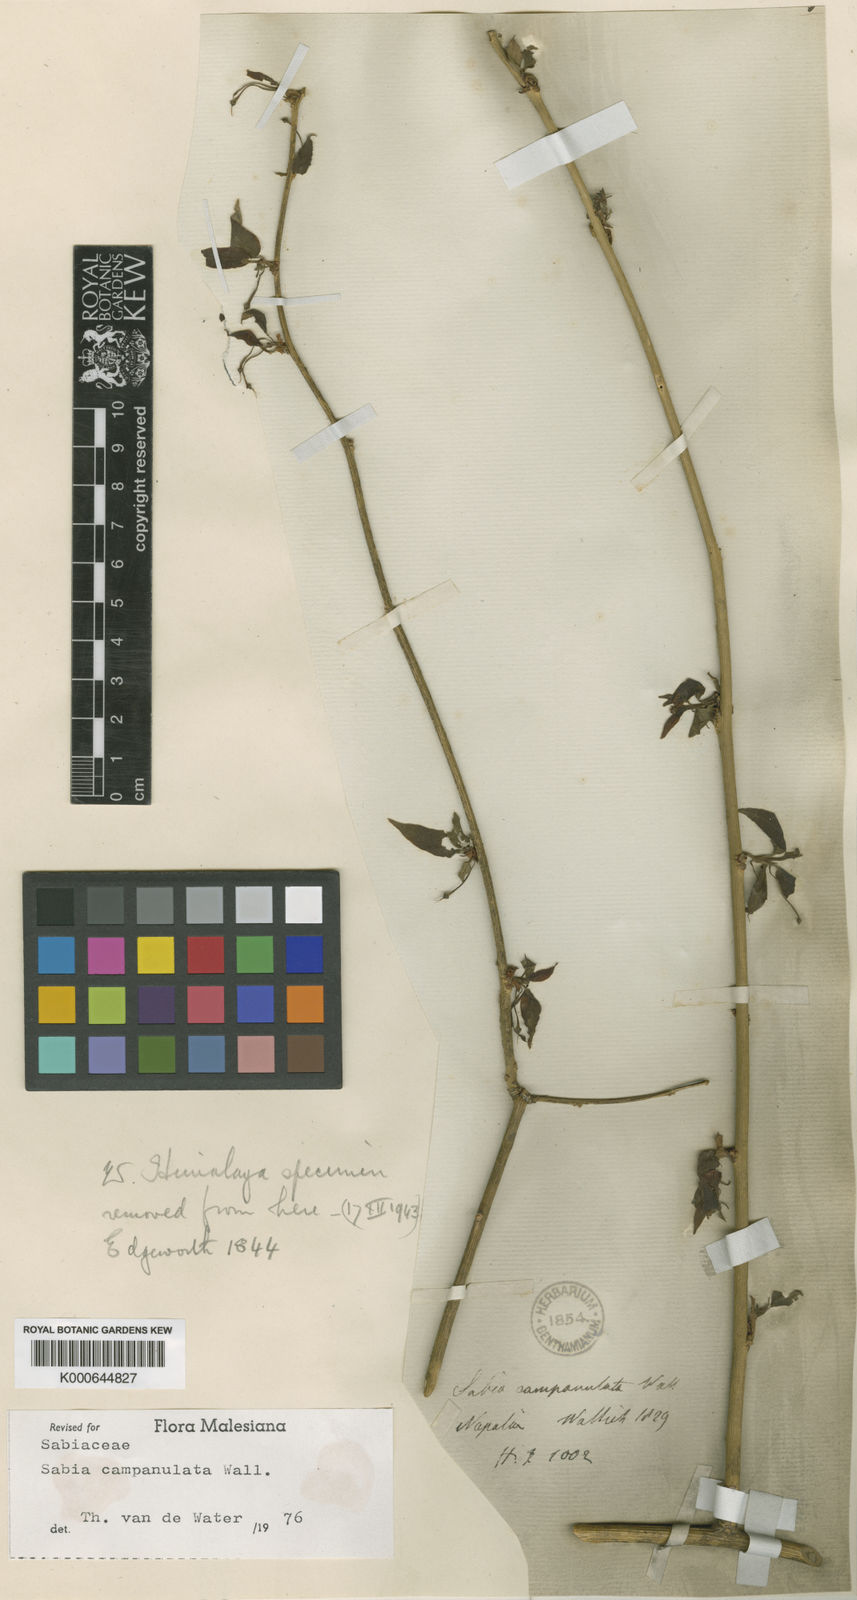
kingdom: Plantae
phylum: Tracheophyta
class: Magnoliopsida
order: Proteales
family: Sabiaceae
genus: Sabia
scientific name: Sabia campanulata
